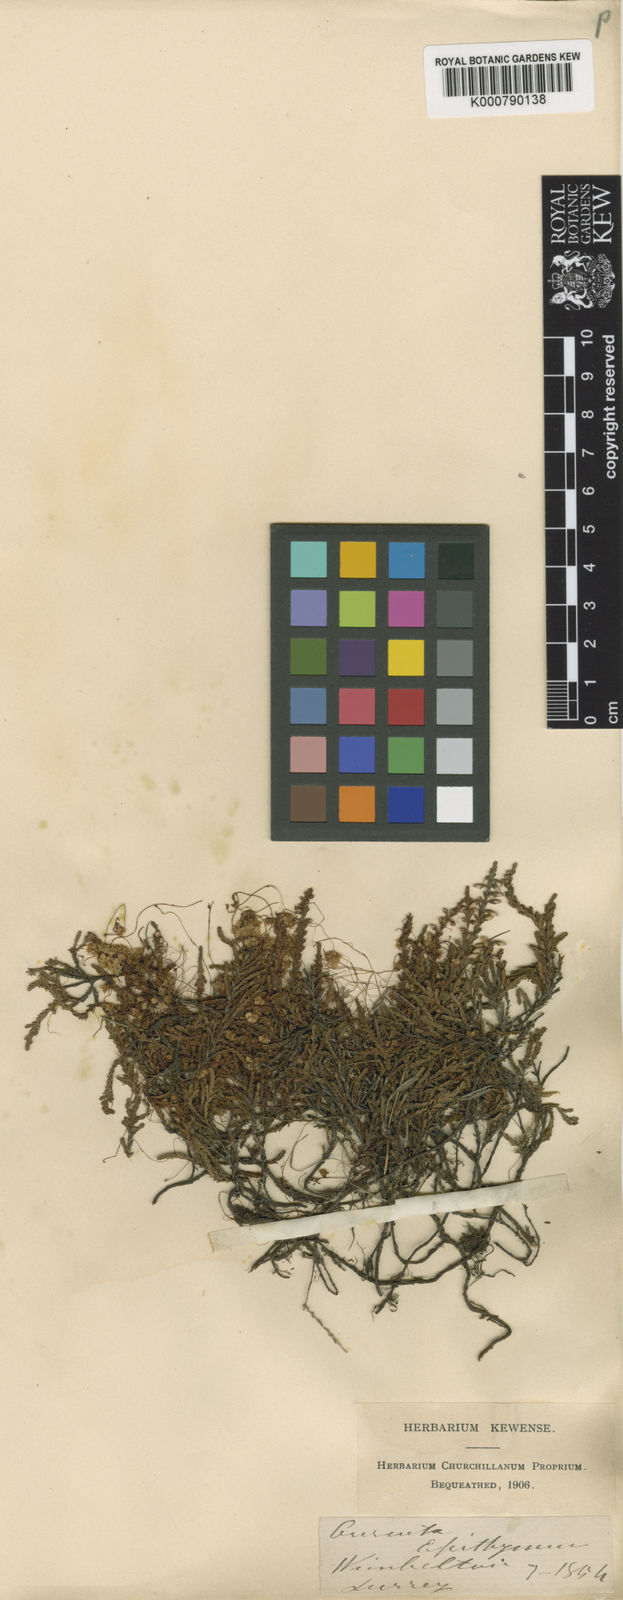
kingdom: Plantae
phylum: Tracheophyta
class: Magnoliopsida
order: Solanales
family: Convolvulaceae
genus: Cuscuta
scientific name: Cuscuta epithymum
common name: Clover dodder
